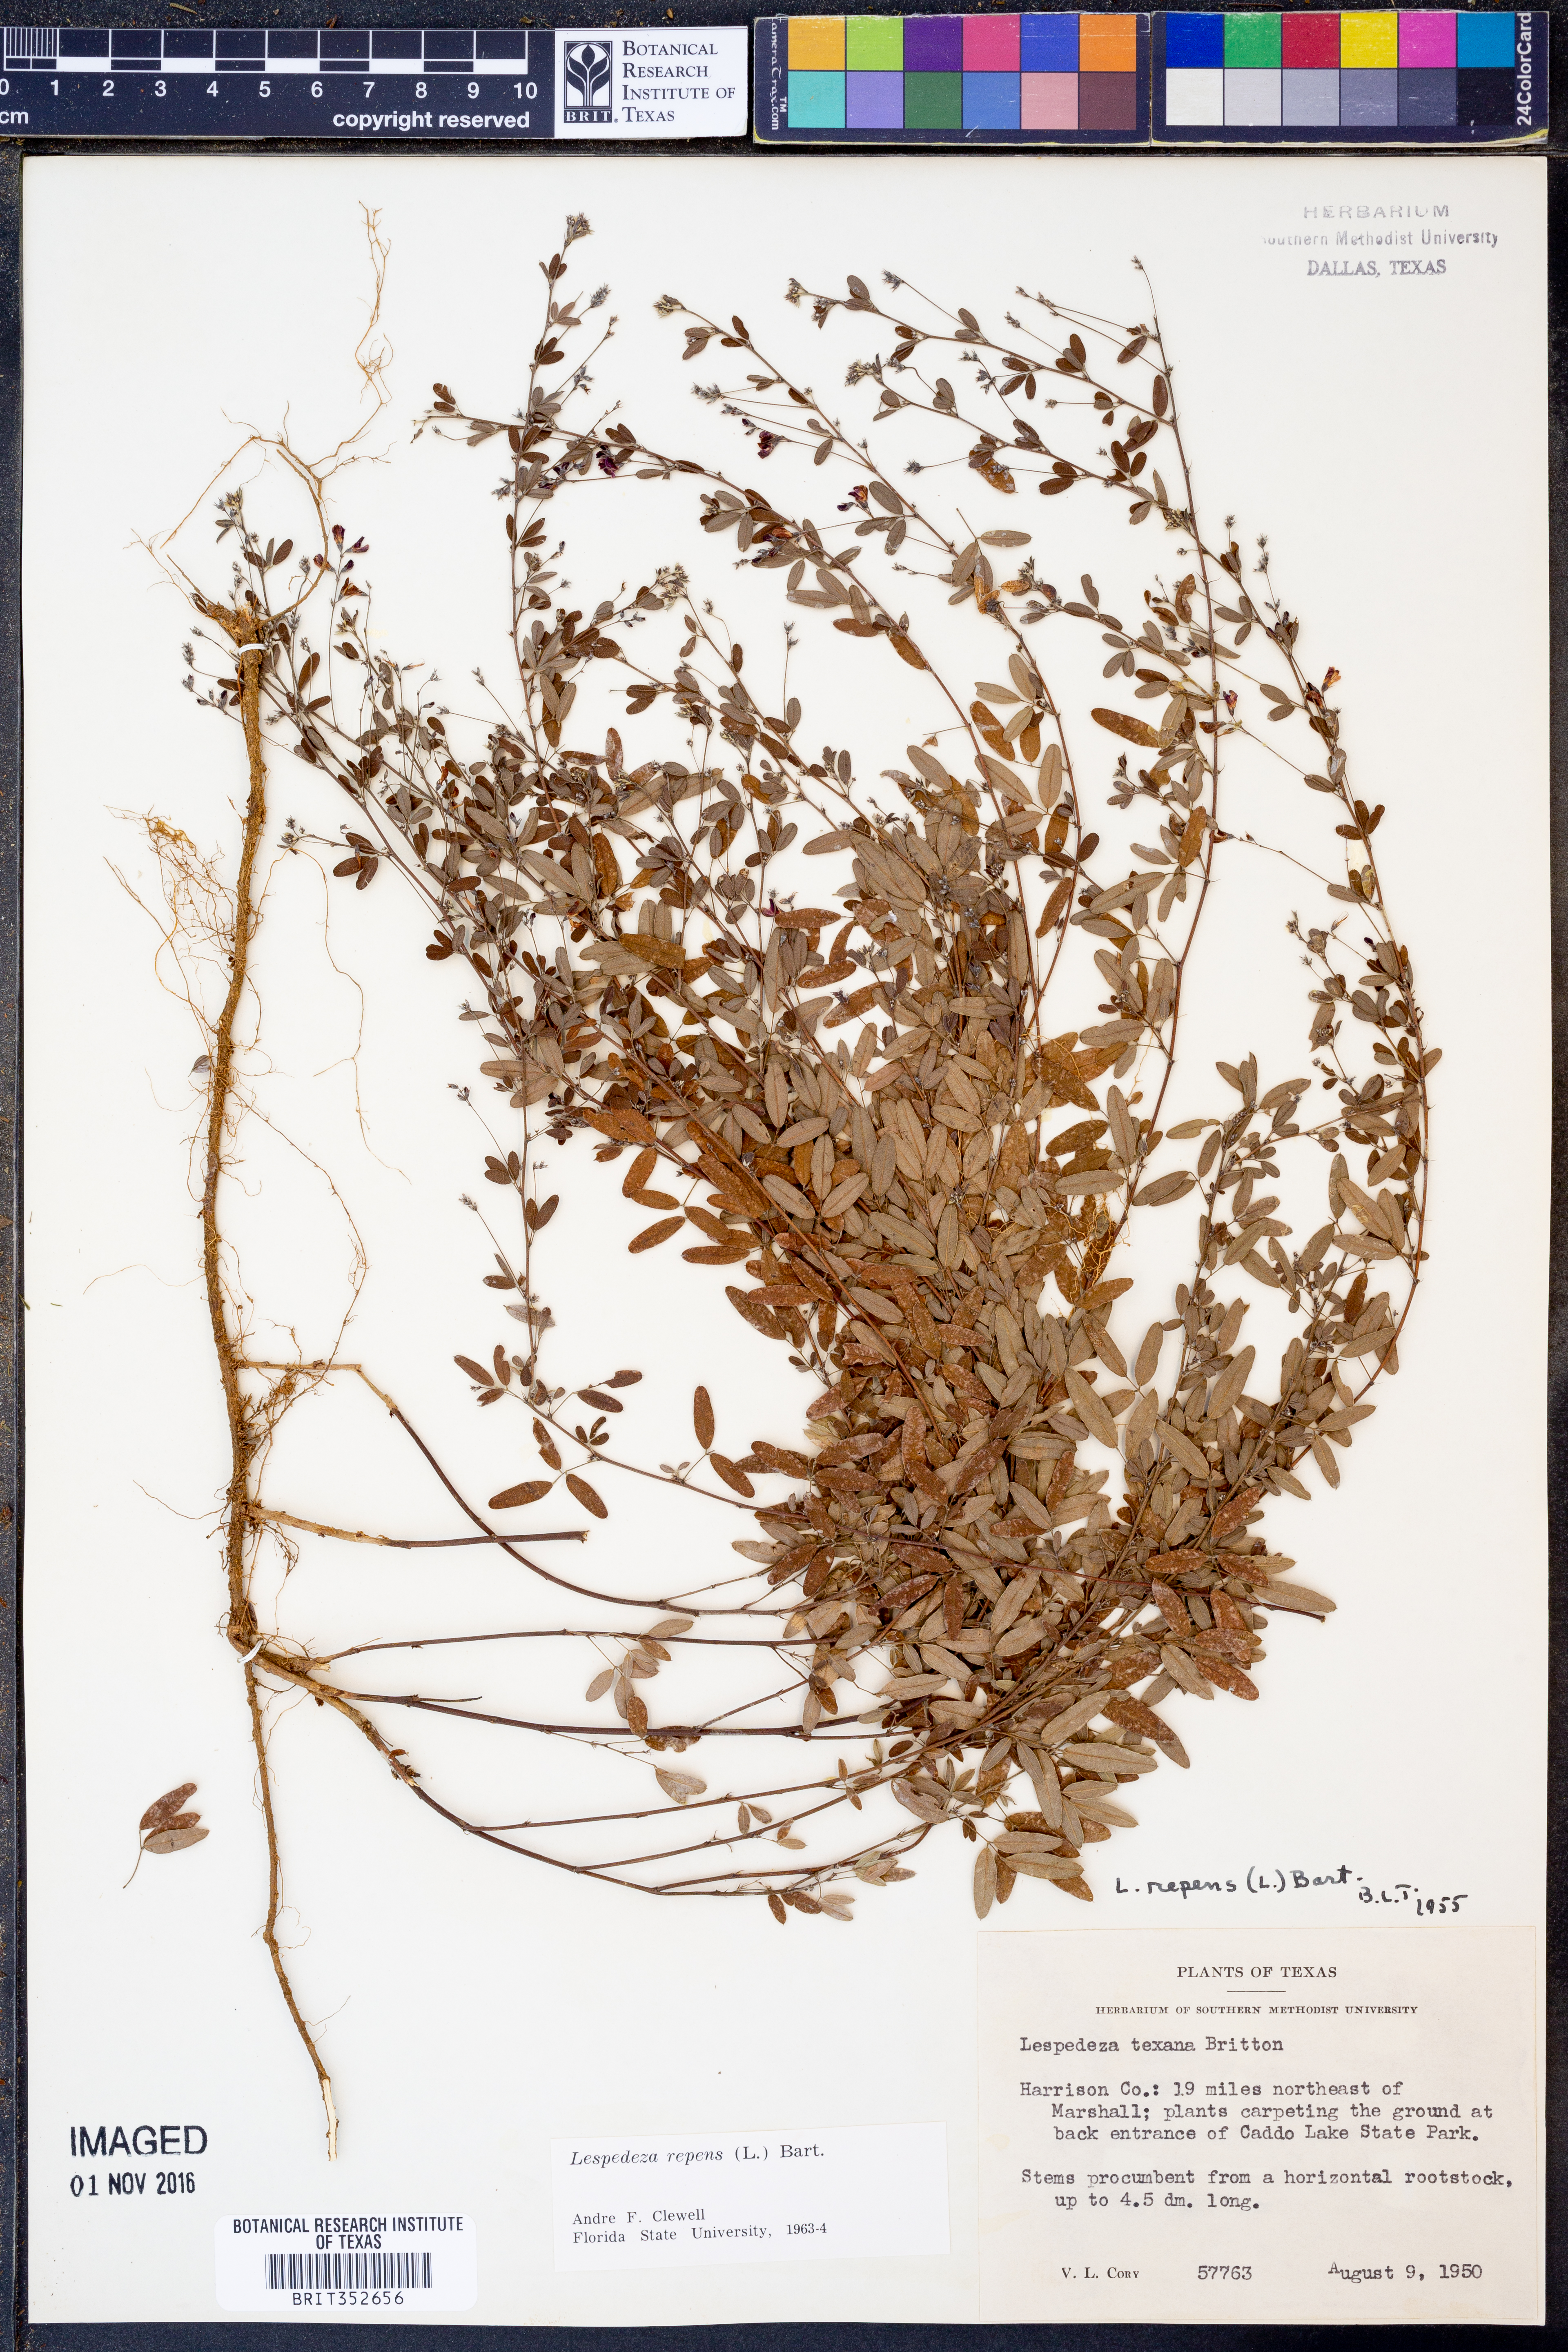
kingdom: Plantae
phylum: Tracheophyta
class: Magnoliopsida
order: Fabales
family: Fabaceae
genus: Lespedeza
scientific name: Lespedeza repens
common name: Creeping bush-clover
